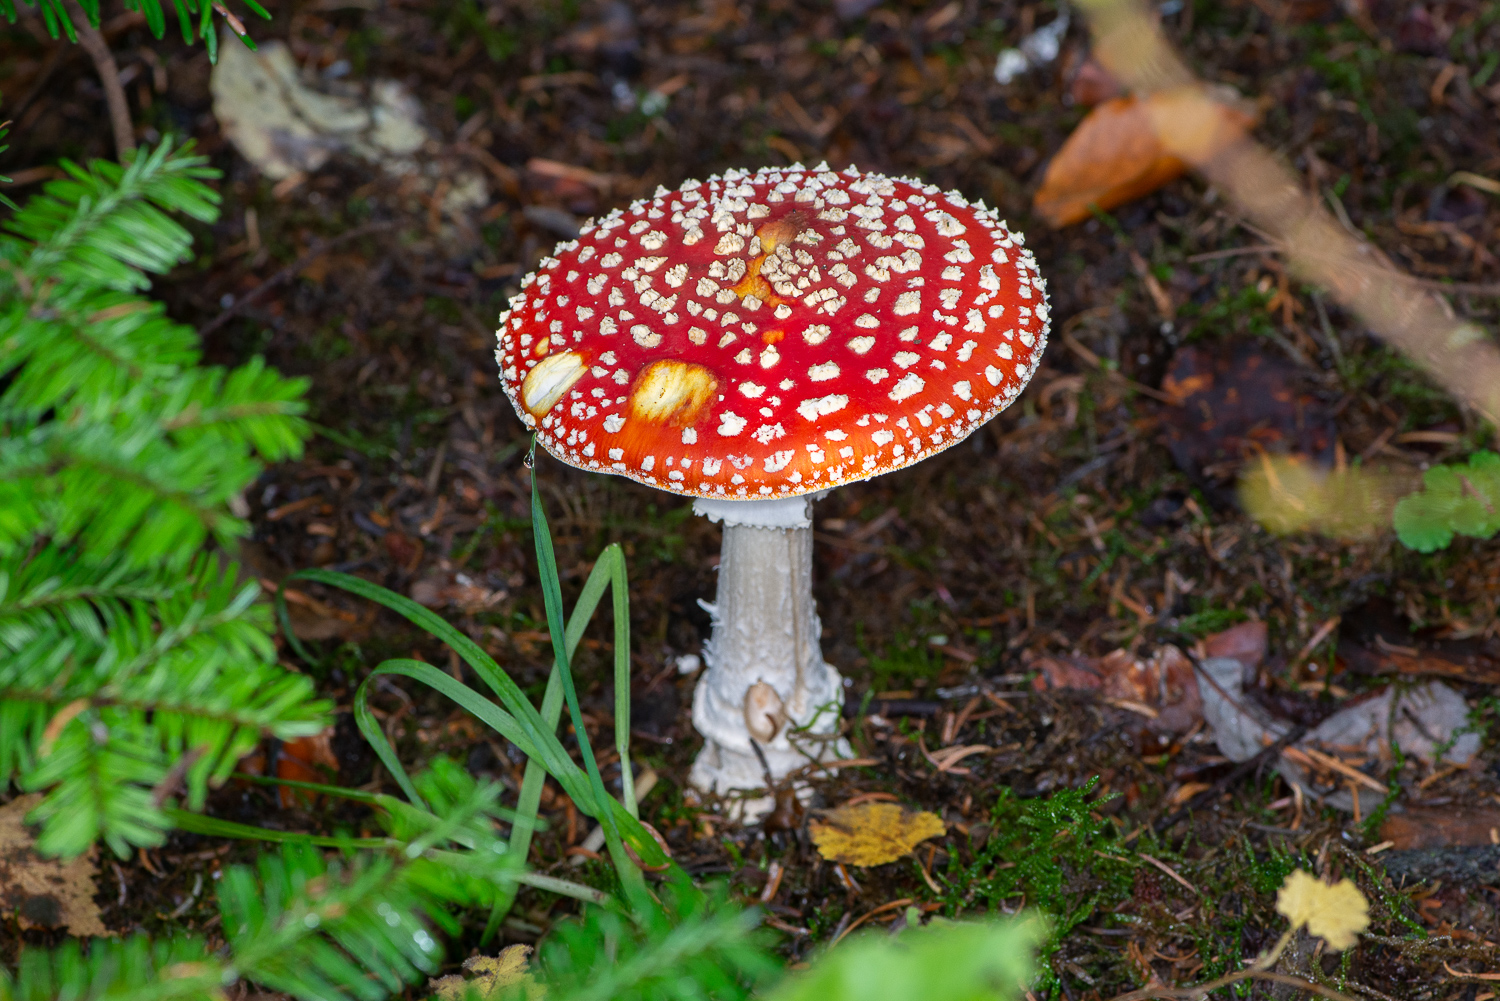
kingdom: Fungi
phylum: Basidiomycota
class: Agaricomycetes
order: Agaricales
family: Amanitaceae
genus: Amanita
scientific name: Amanita muscaria
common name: rød fluesvamp
